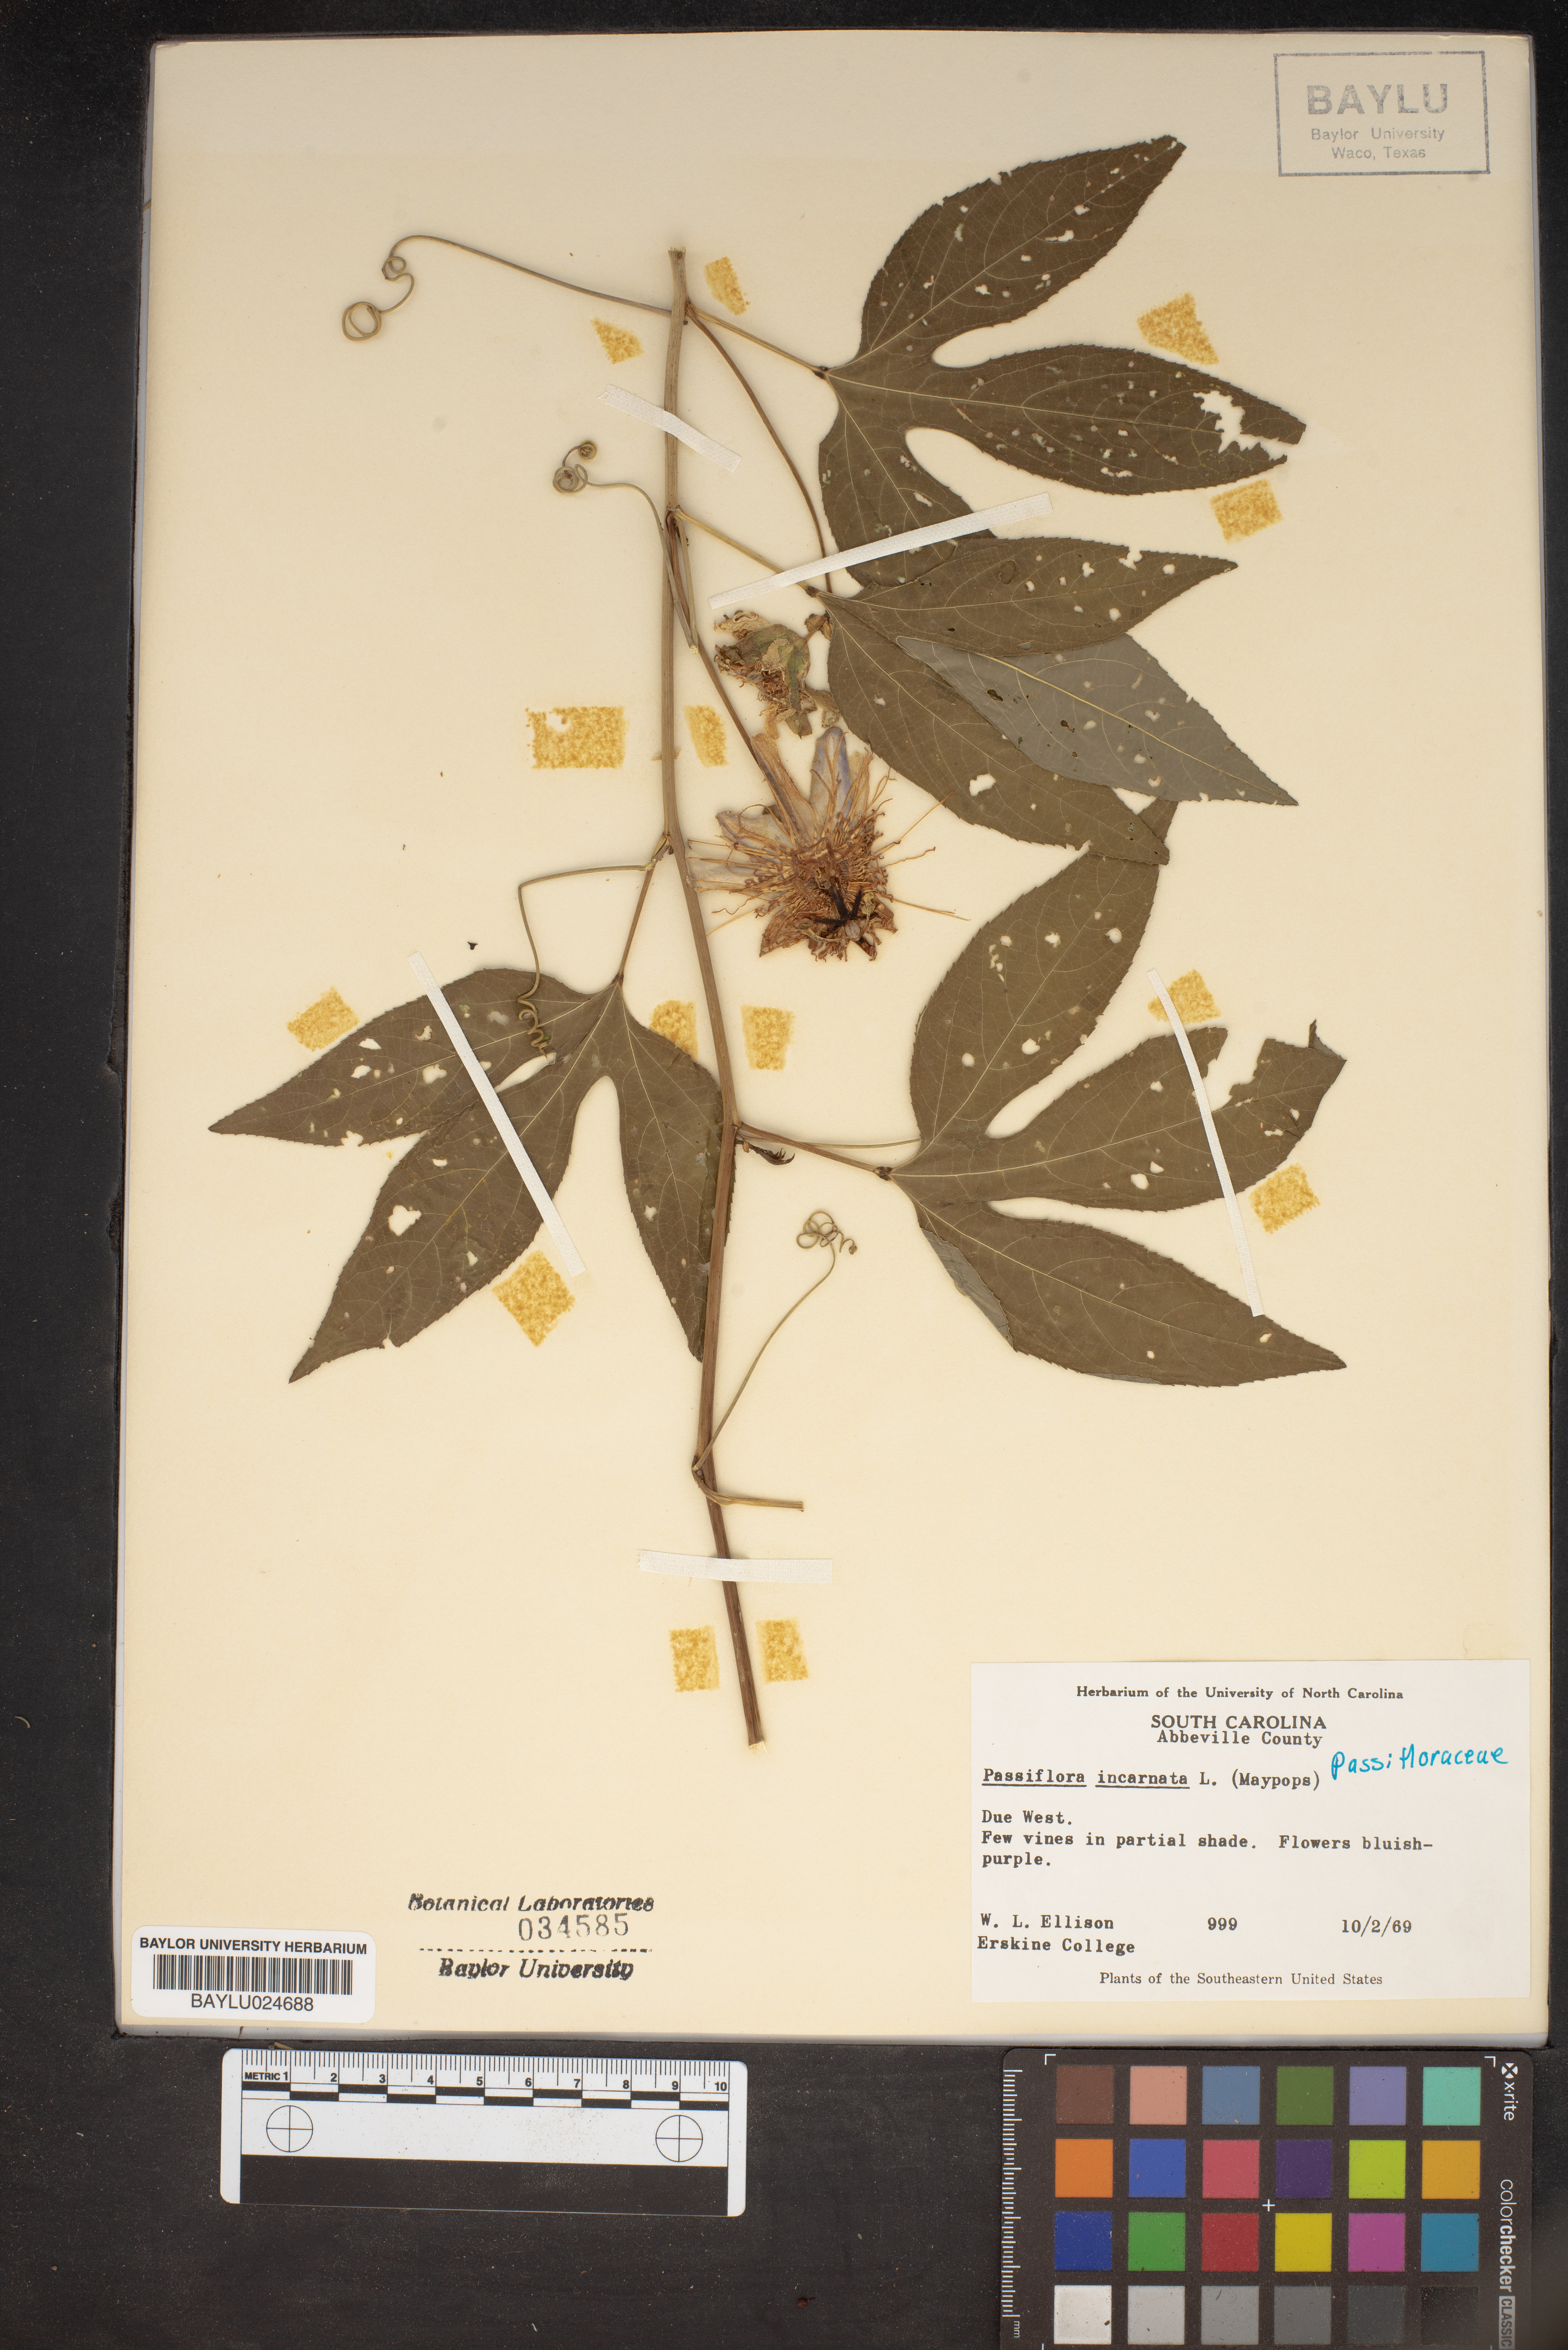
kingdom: Plantae
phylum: Tracheophyta
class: Magnoliopsida
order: Malpighiales
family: Passifloraceae
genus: Passiflora
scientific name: Passiflora incarnata
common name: Apricot-vine
